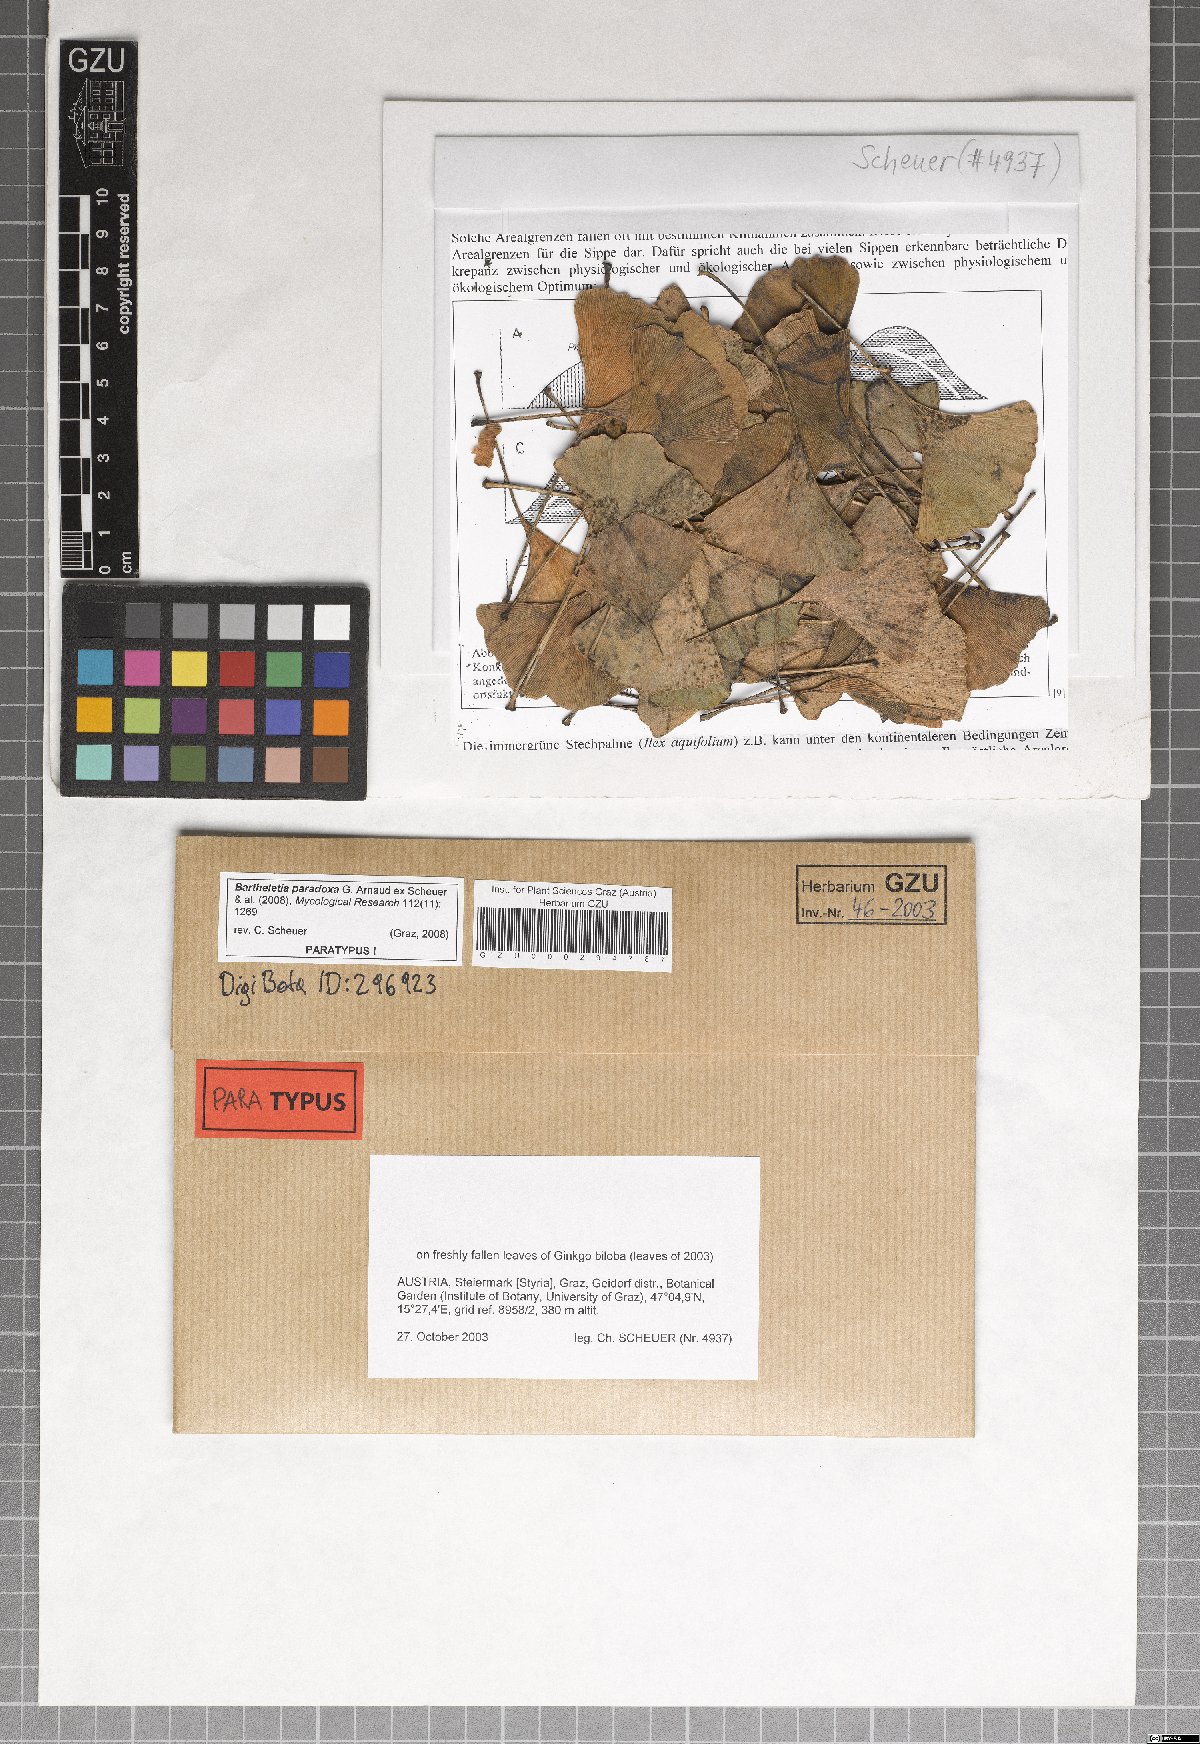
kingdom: Fungi
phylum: Basidiomycota
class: Wallemiomycetes
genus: Bartheletia
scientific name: Bartheletia paradoxa
